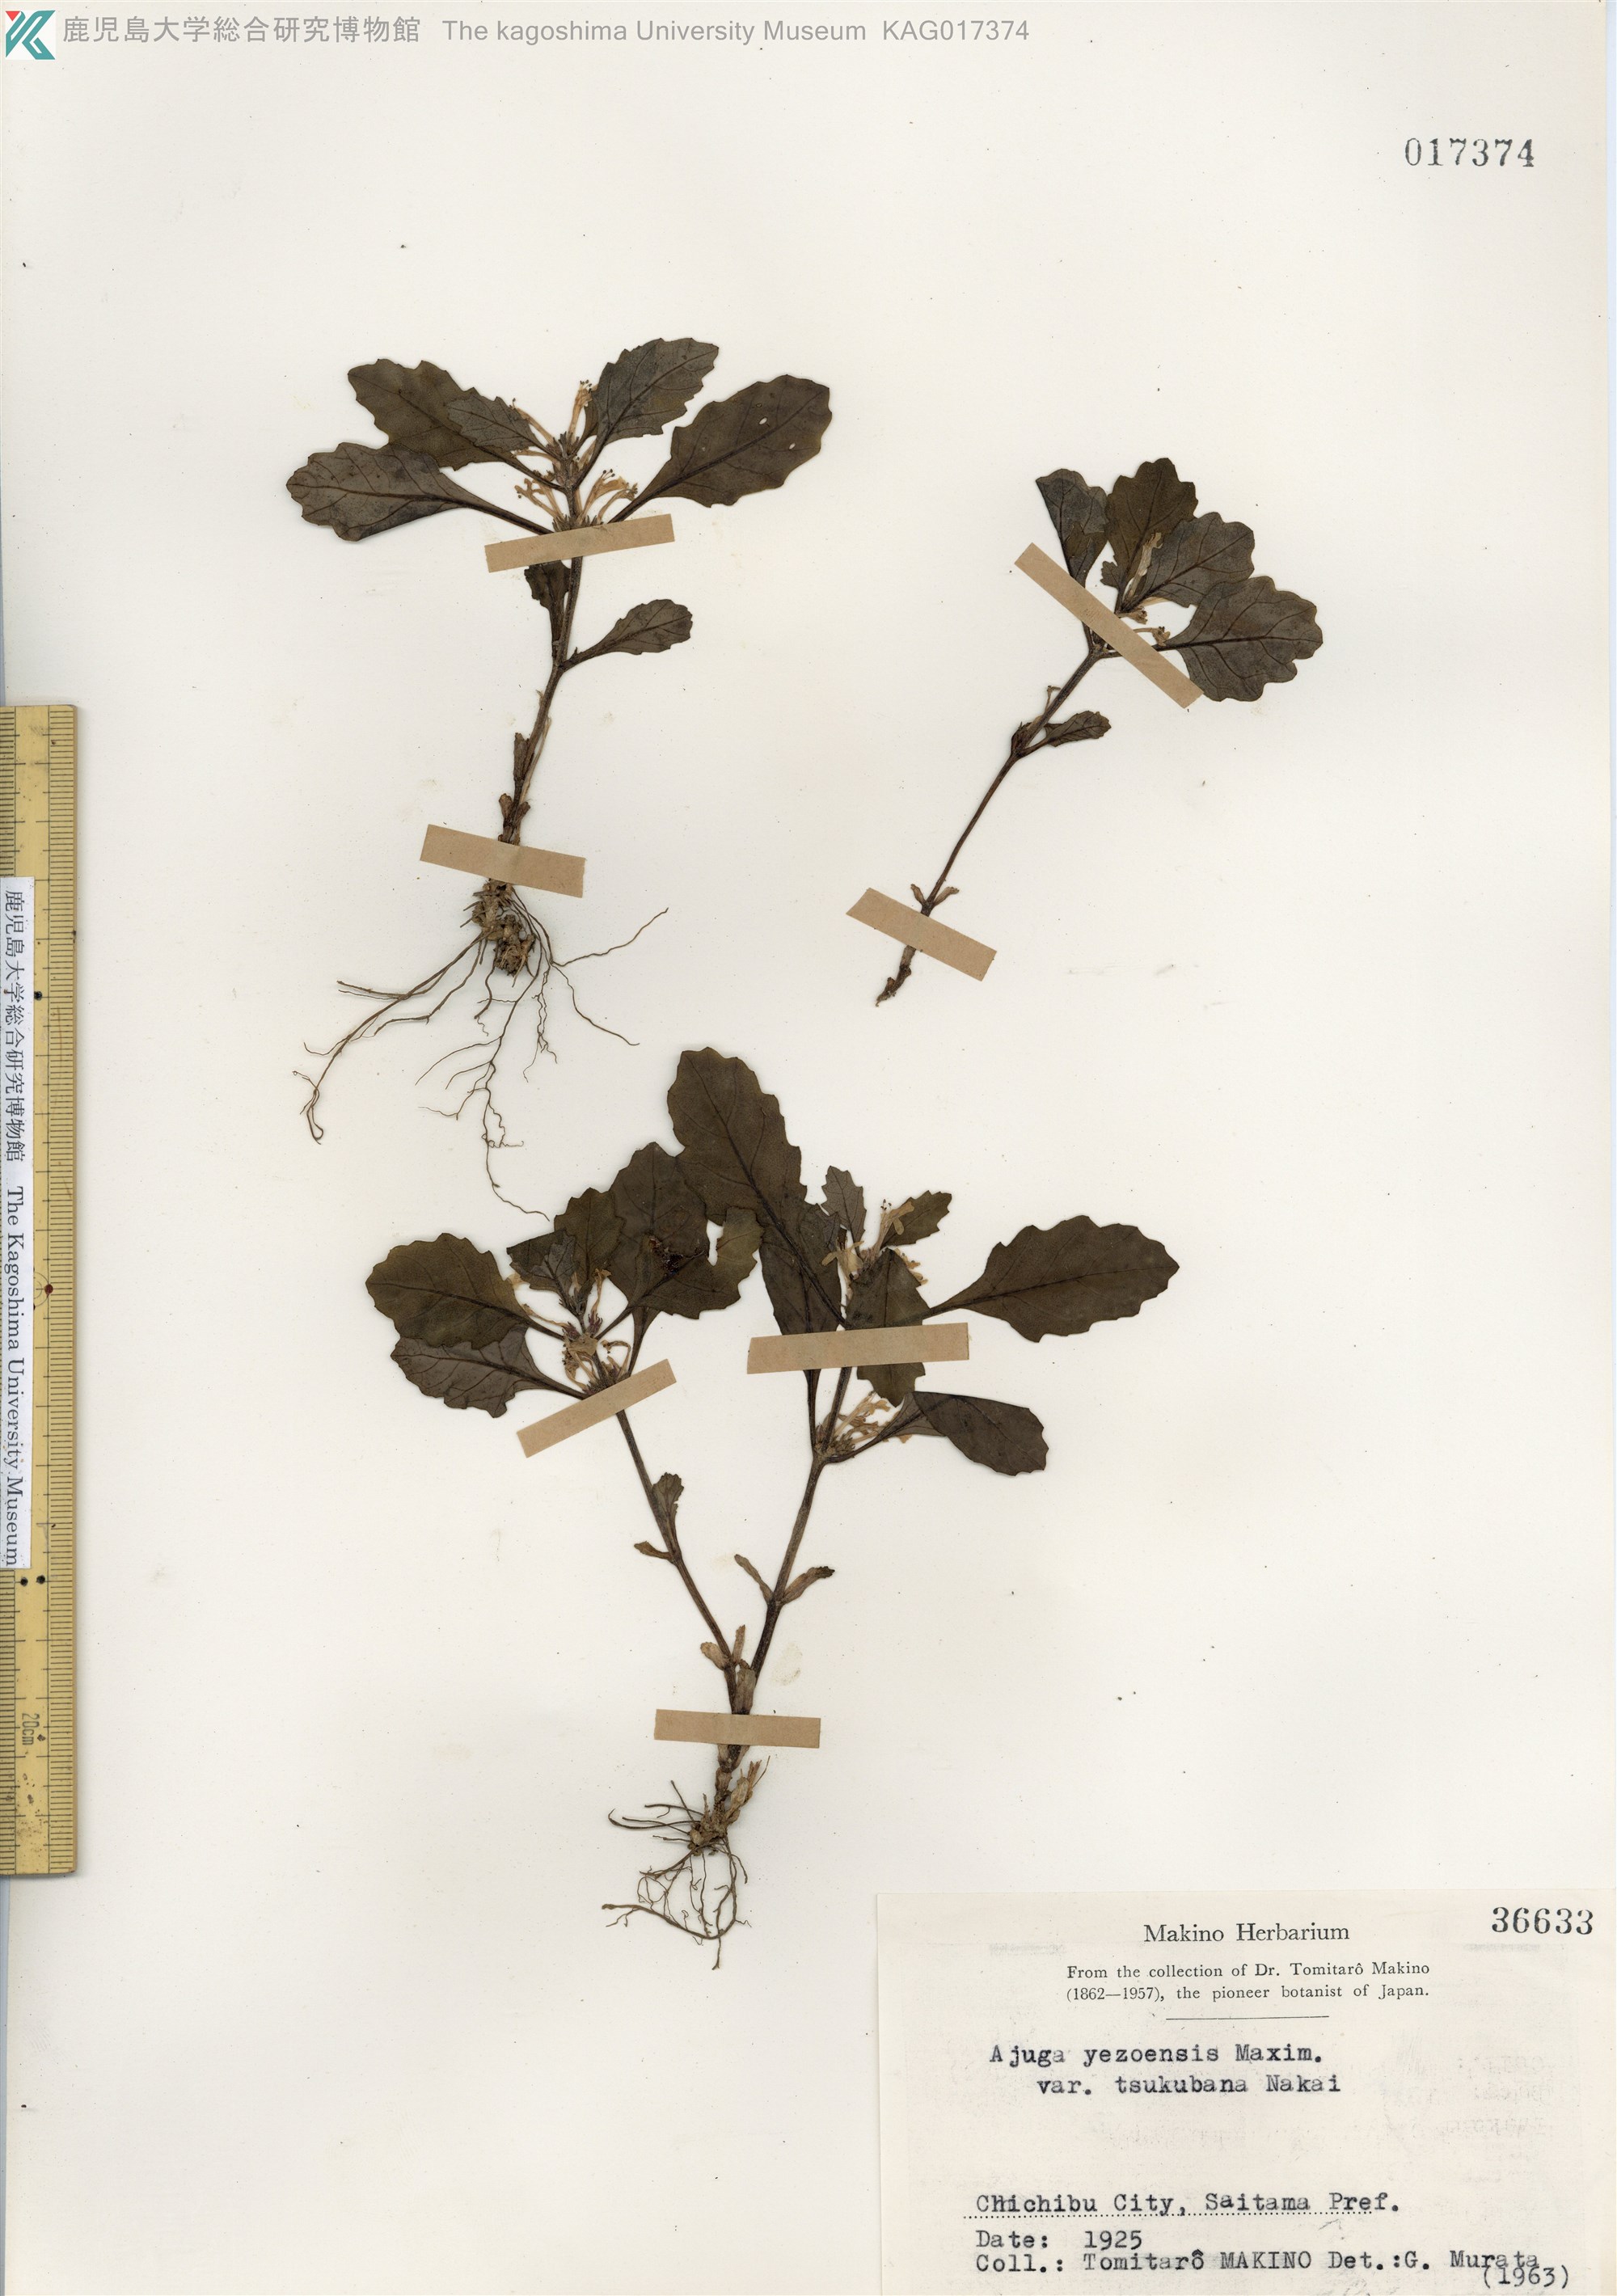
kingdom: Plantae
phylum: Tracheophyta
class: Magnoliopsida
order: Lamiales
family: Lamiaceae
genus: Ajuga
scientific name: Ajuga yesoensis
